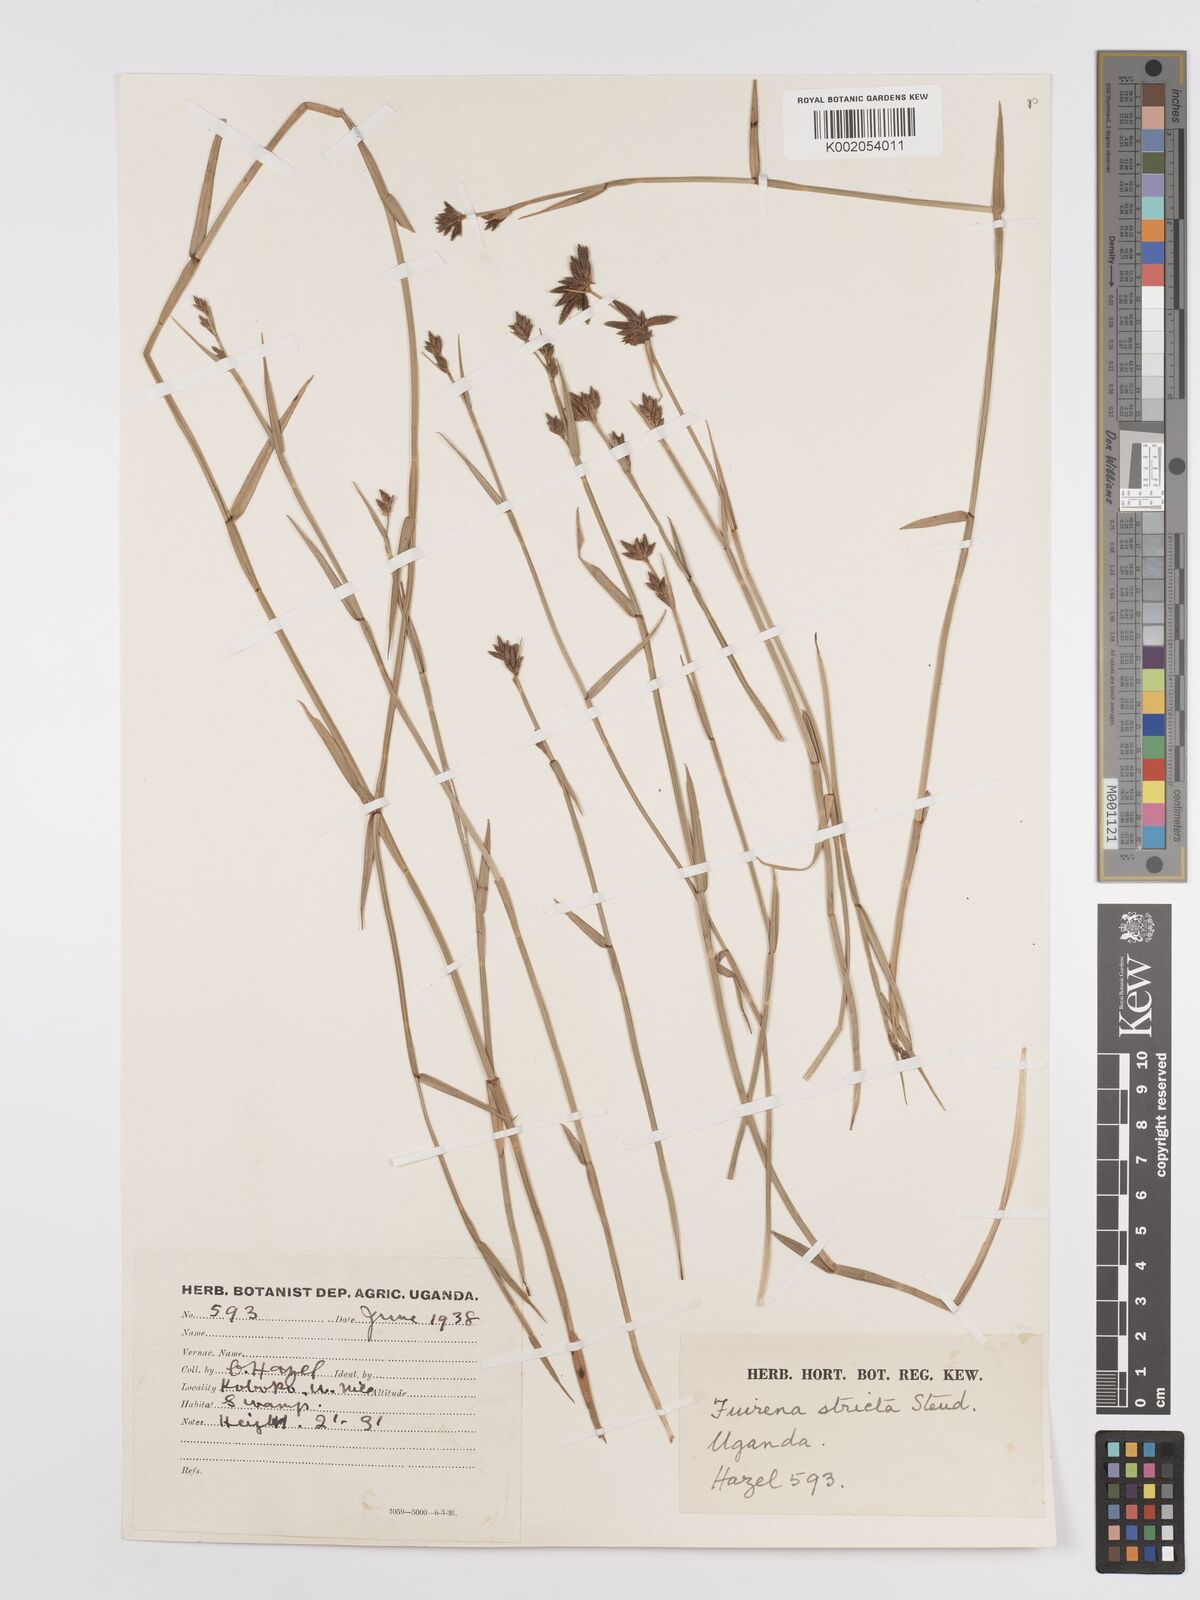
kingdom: Plantae
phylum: Tracheophyta
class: Liliopsida
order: Poales
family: Cyperaceae
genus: Fuirena
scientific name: Fuirena stricta
